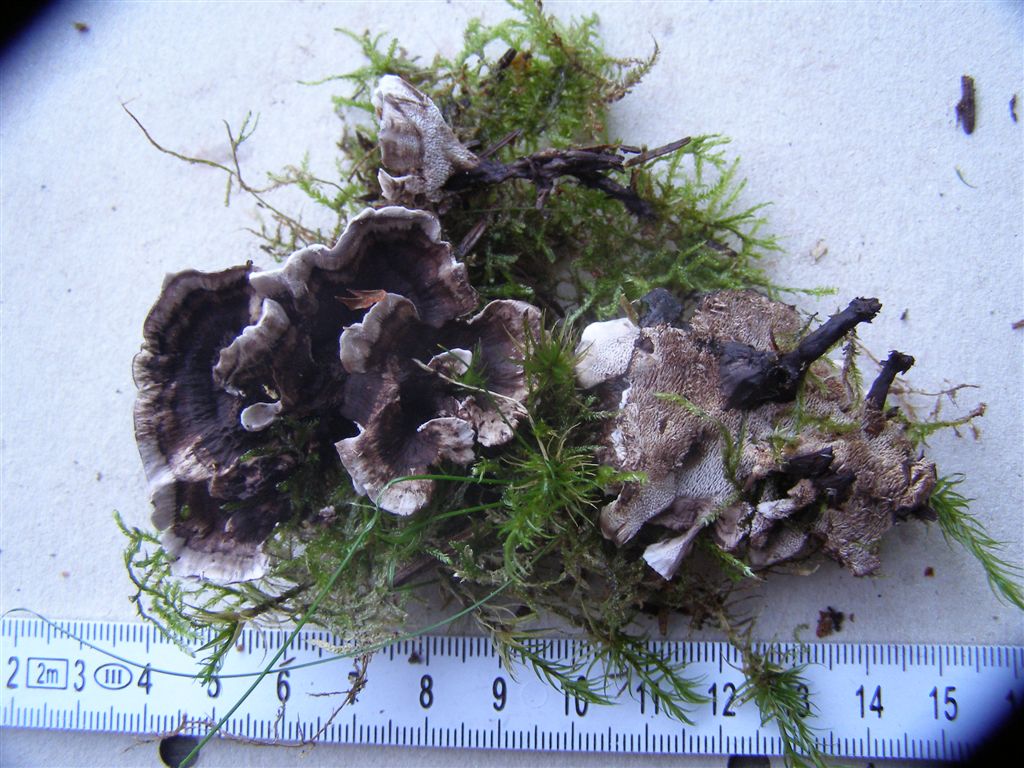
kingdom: Fungi
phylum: Basidiomycota
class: Agaricomycetes
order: Thelephorales
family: Thelephoraceae
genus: Phellodon
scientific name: Phellodon tomentosus
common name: vellugtende duftpigsvamp
